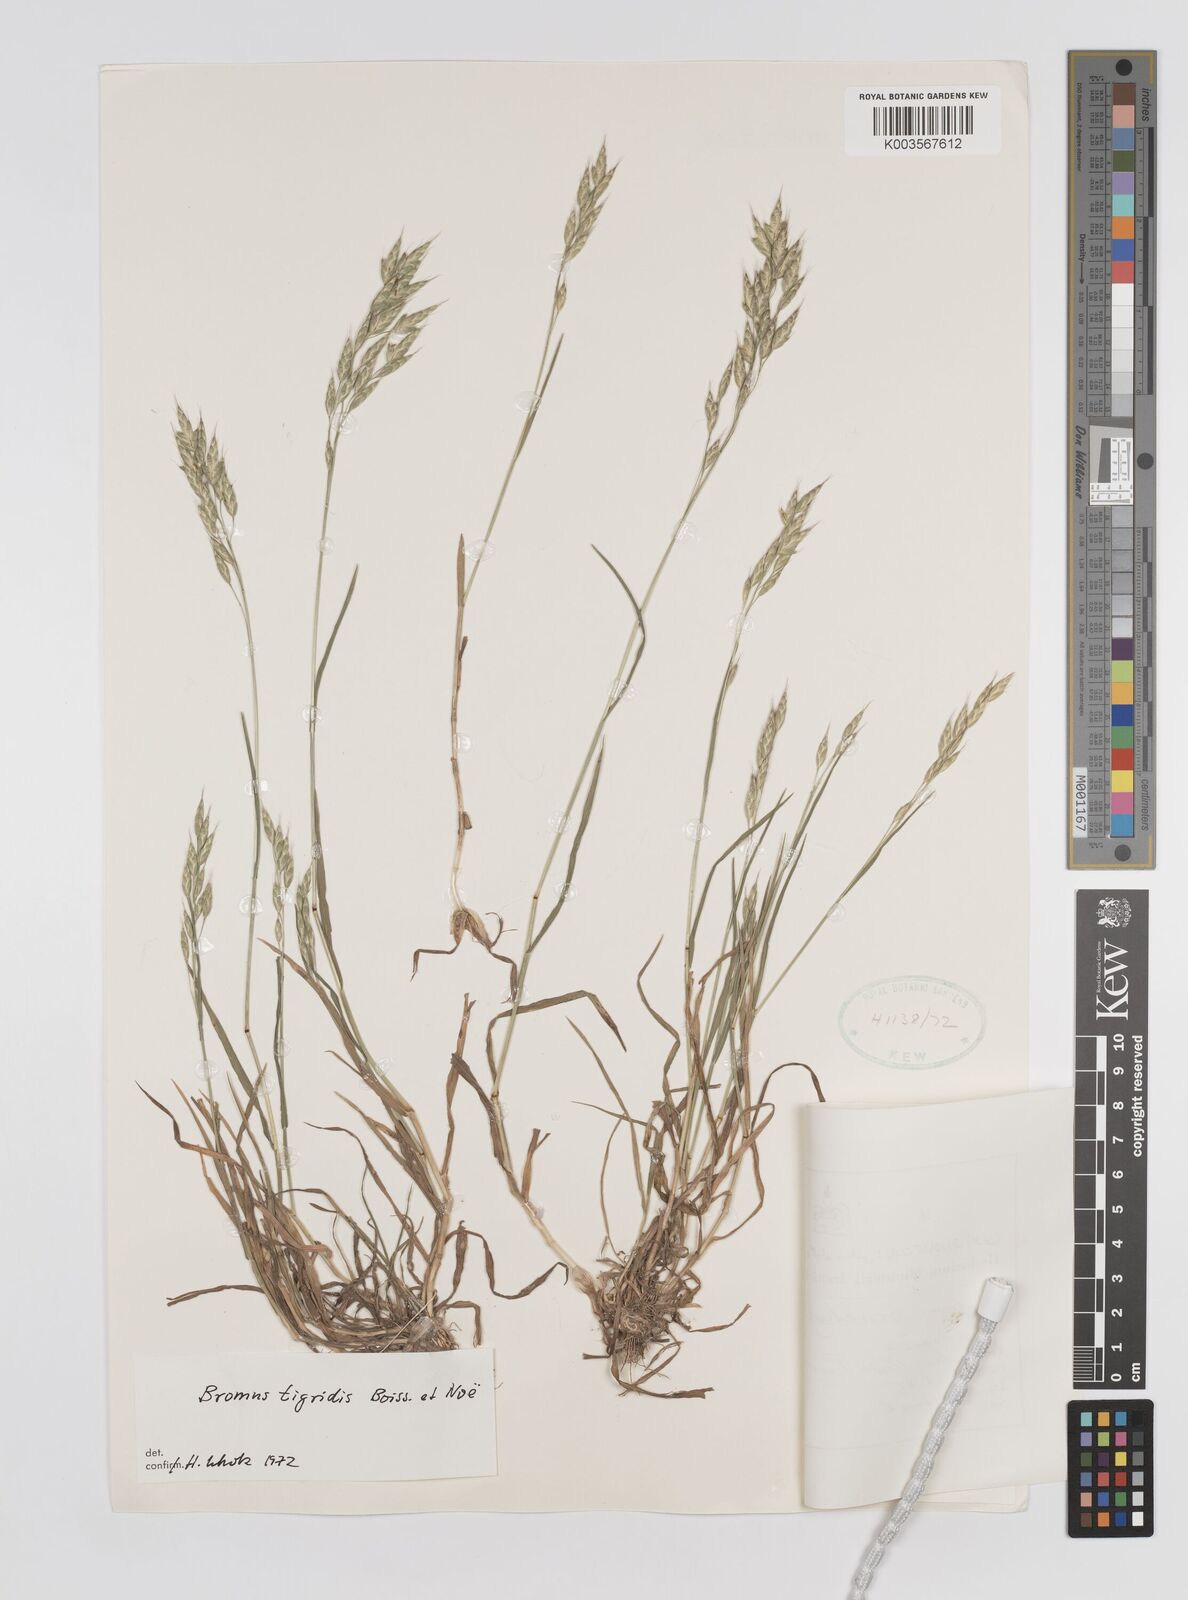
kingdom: Plantae
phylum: Tracheophyta
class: Liliopsida
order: Poales
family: Poaceae
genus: Bromus
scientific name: Bromus brachystachys
